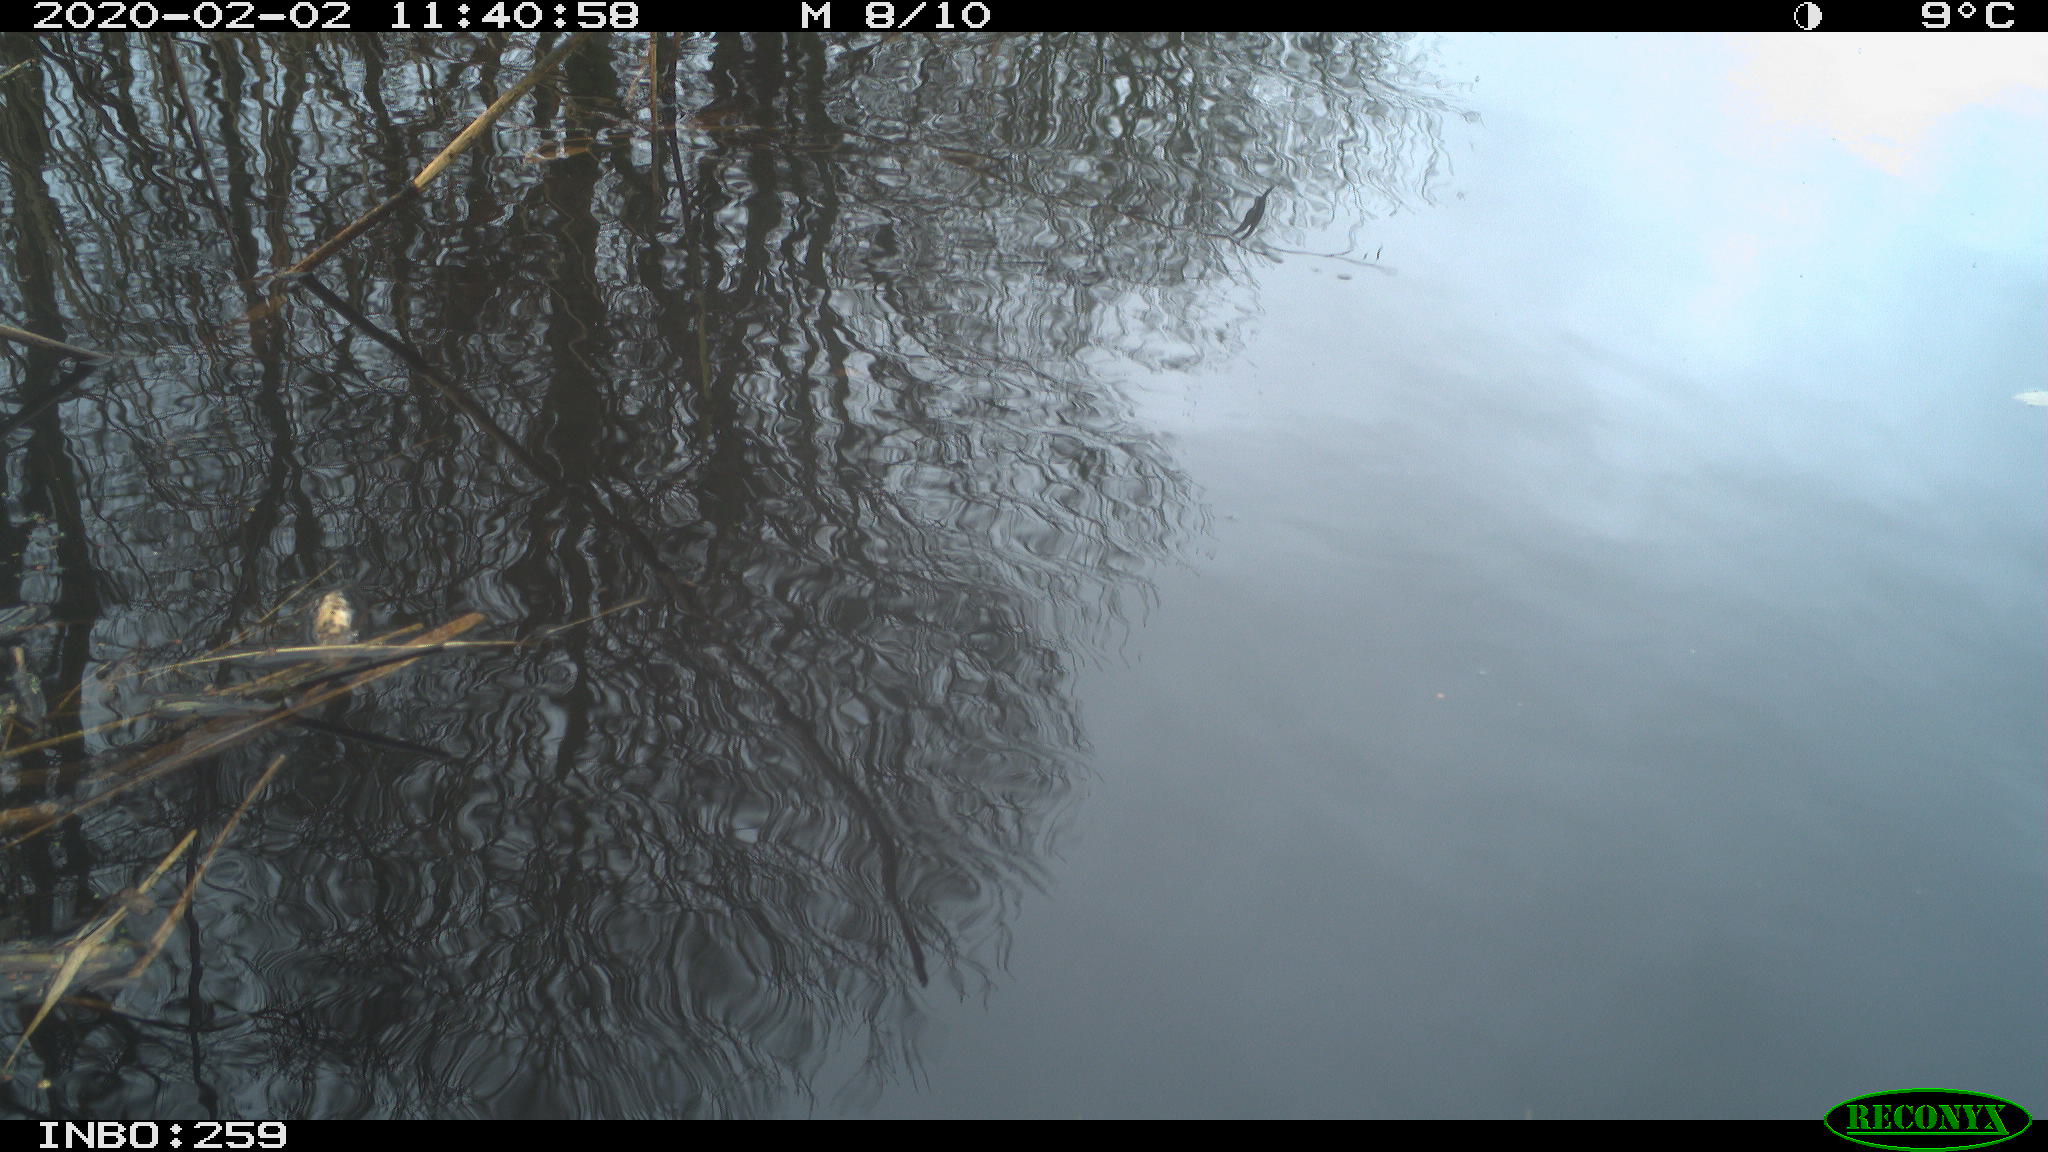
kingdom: Animalia
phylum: Chordata
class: Aves
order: Gruiformes
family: Rallidae
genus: Gallinula
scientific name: Gallinula chloropus
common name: Common moorhen
